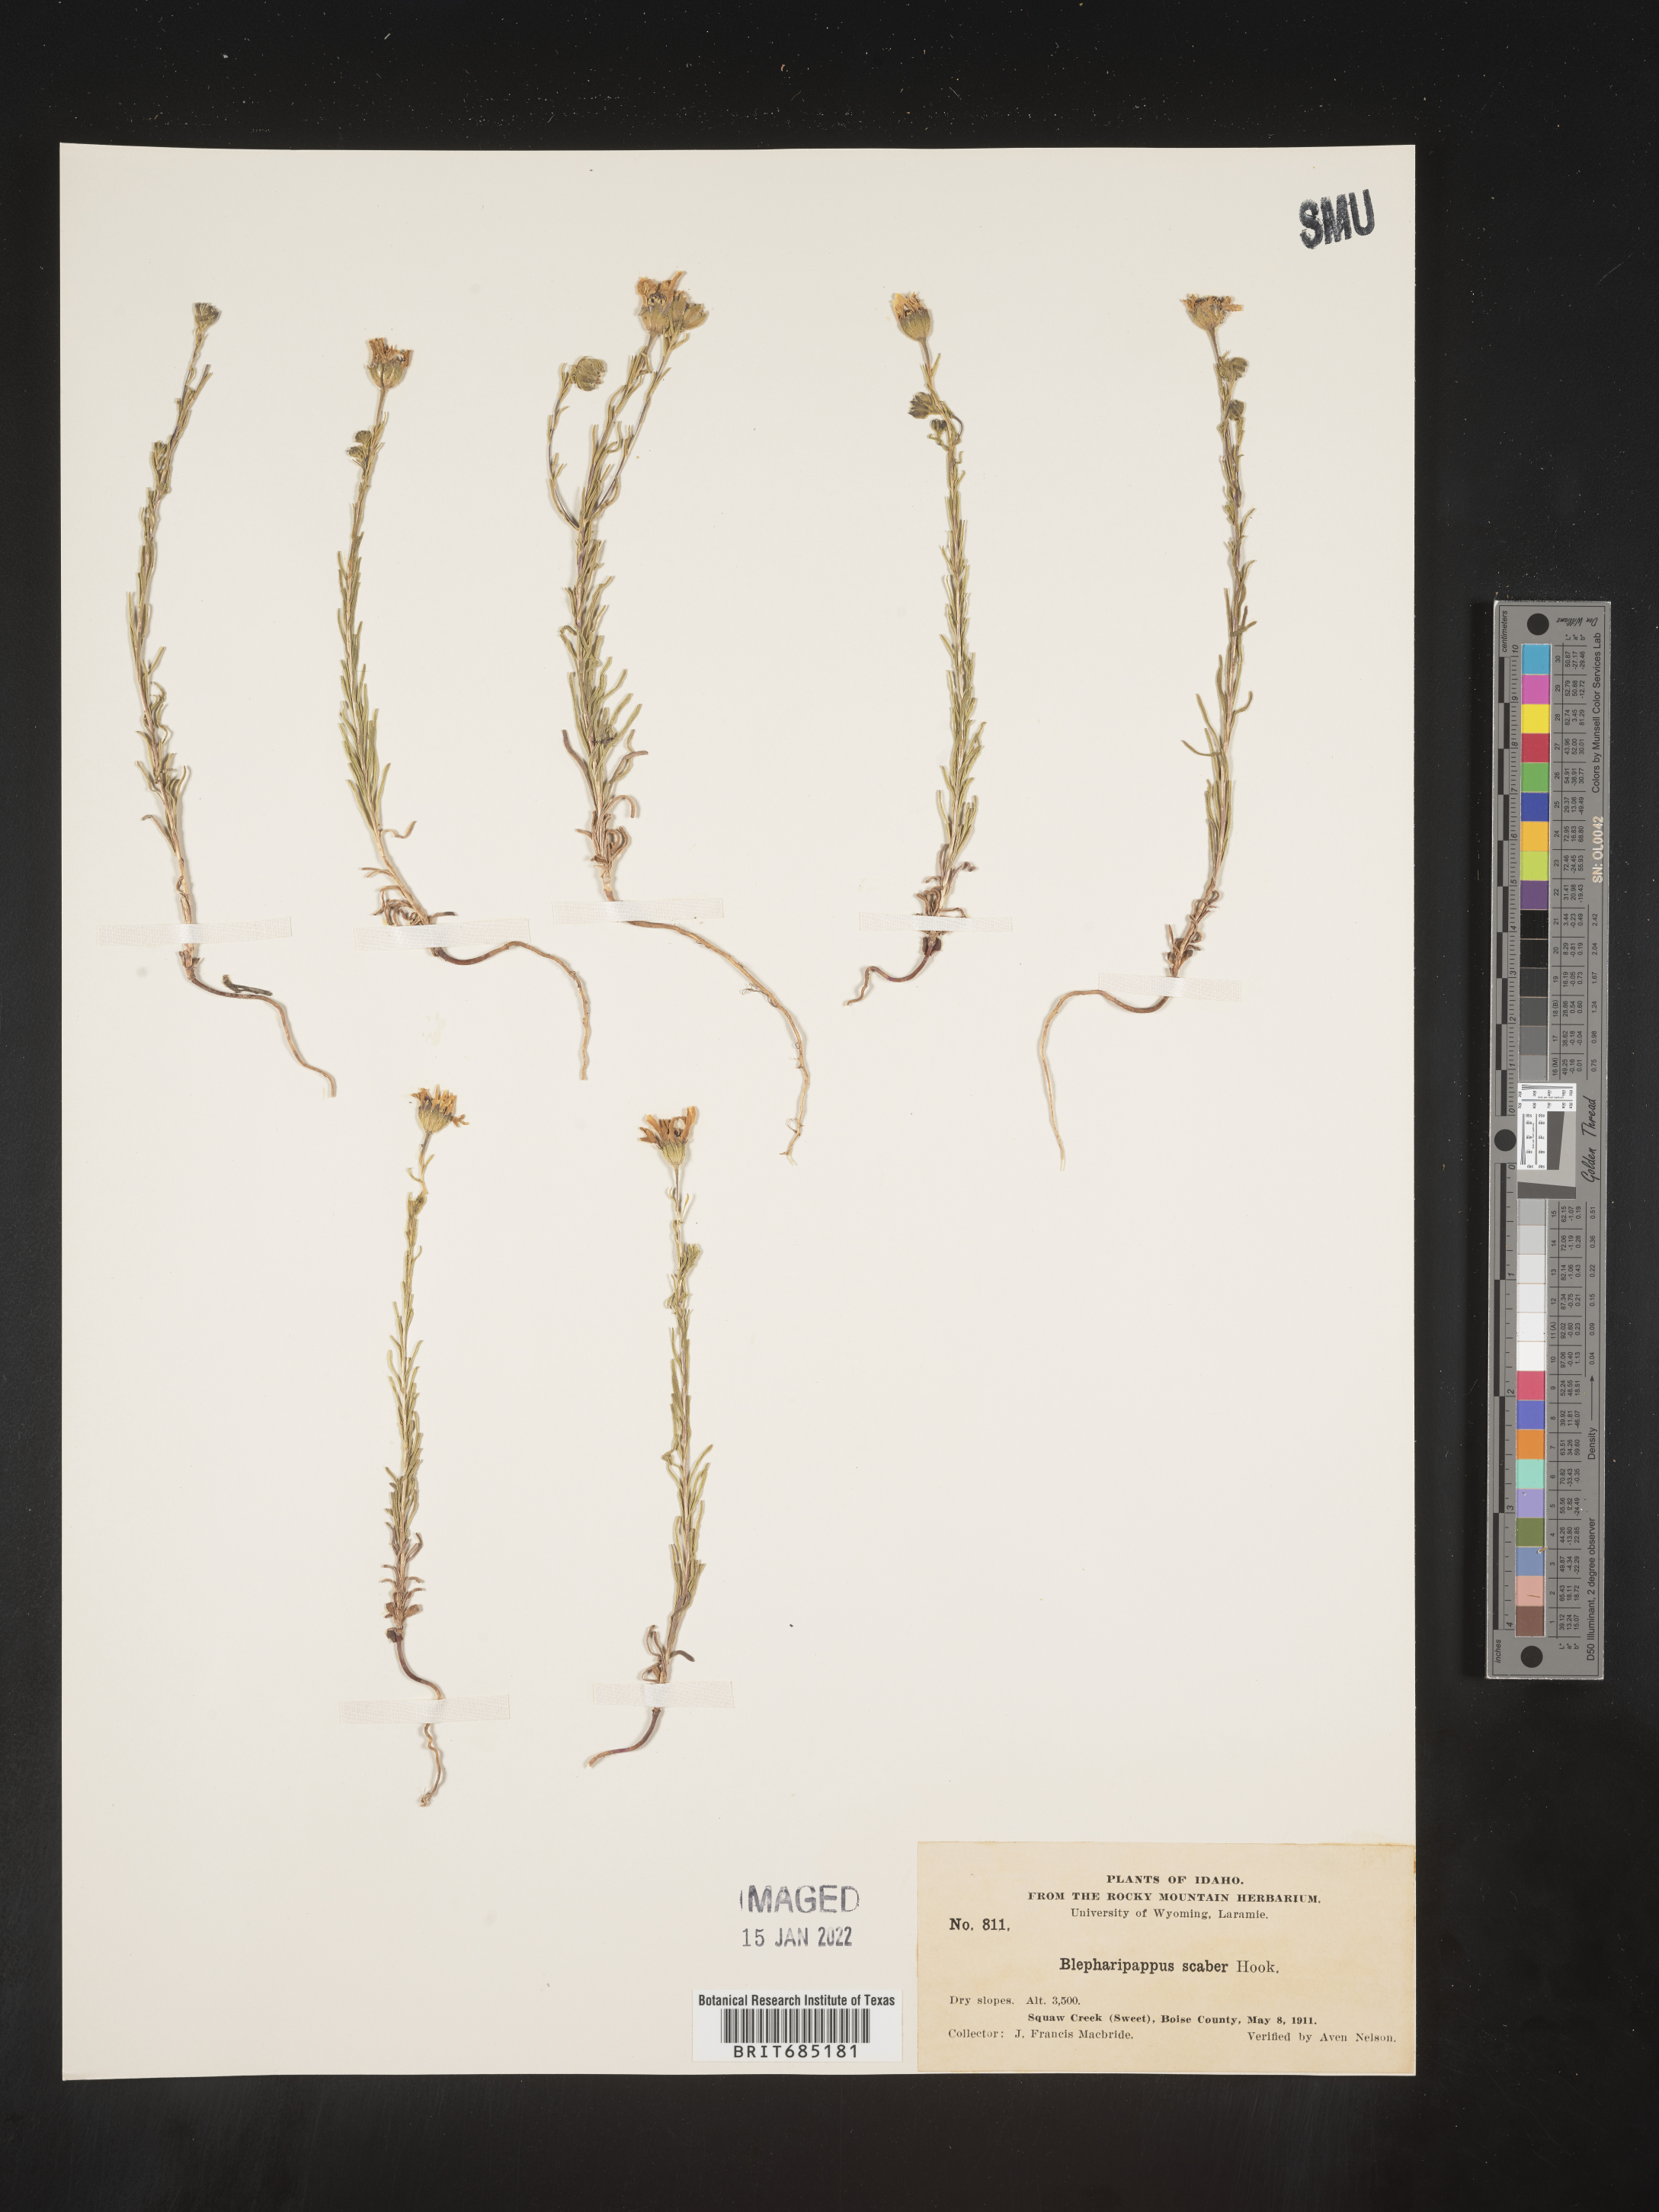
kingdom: Plantae
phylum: Tracheophyta
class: Magnoliopsida
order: Asterales
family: Asteraceae
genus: Blepharipappus
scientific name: Blepharipappus
